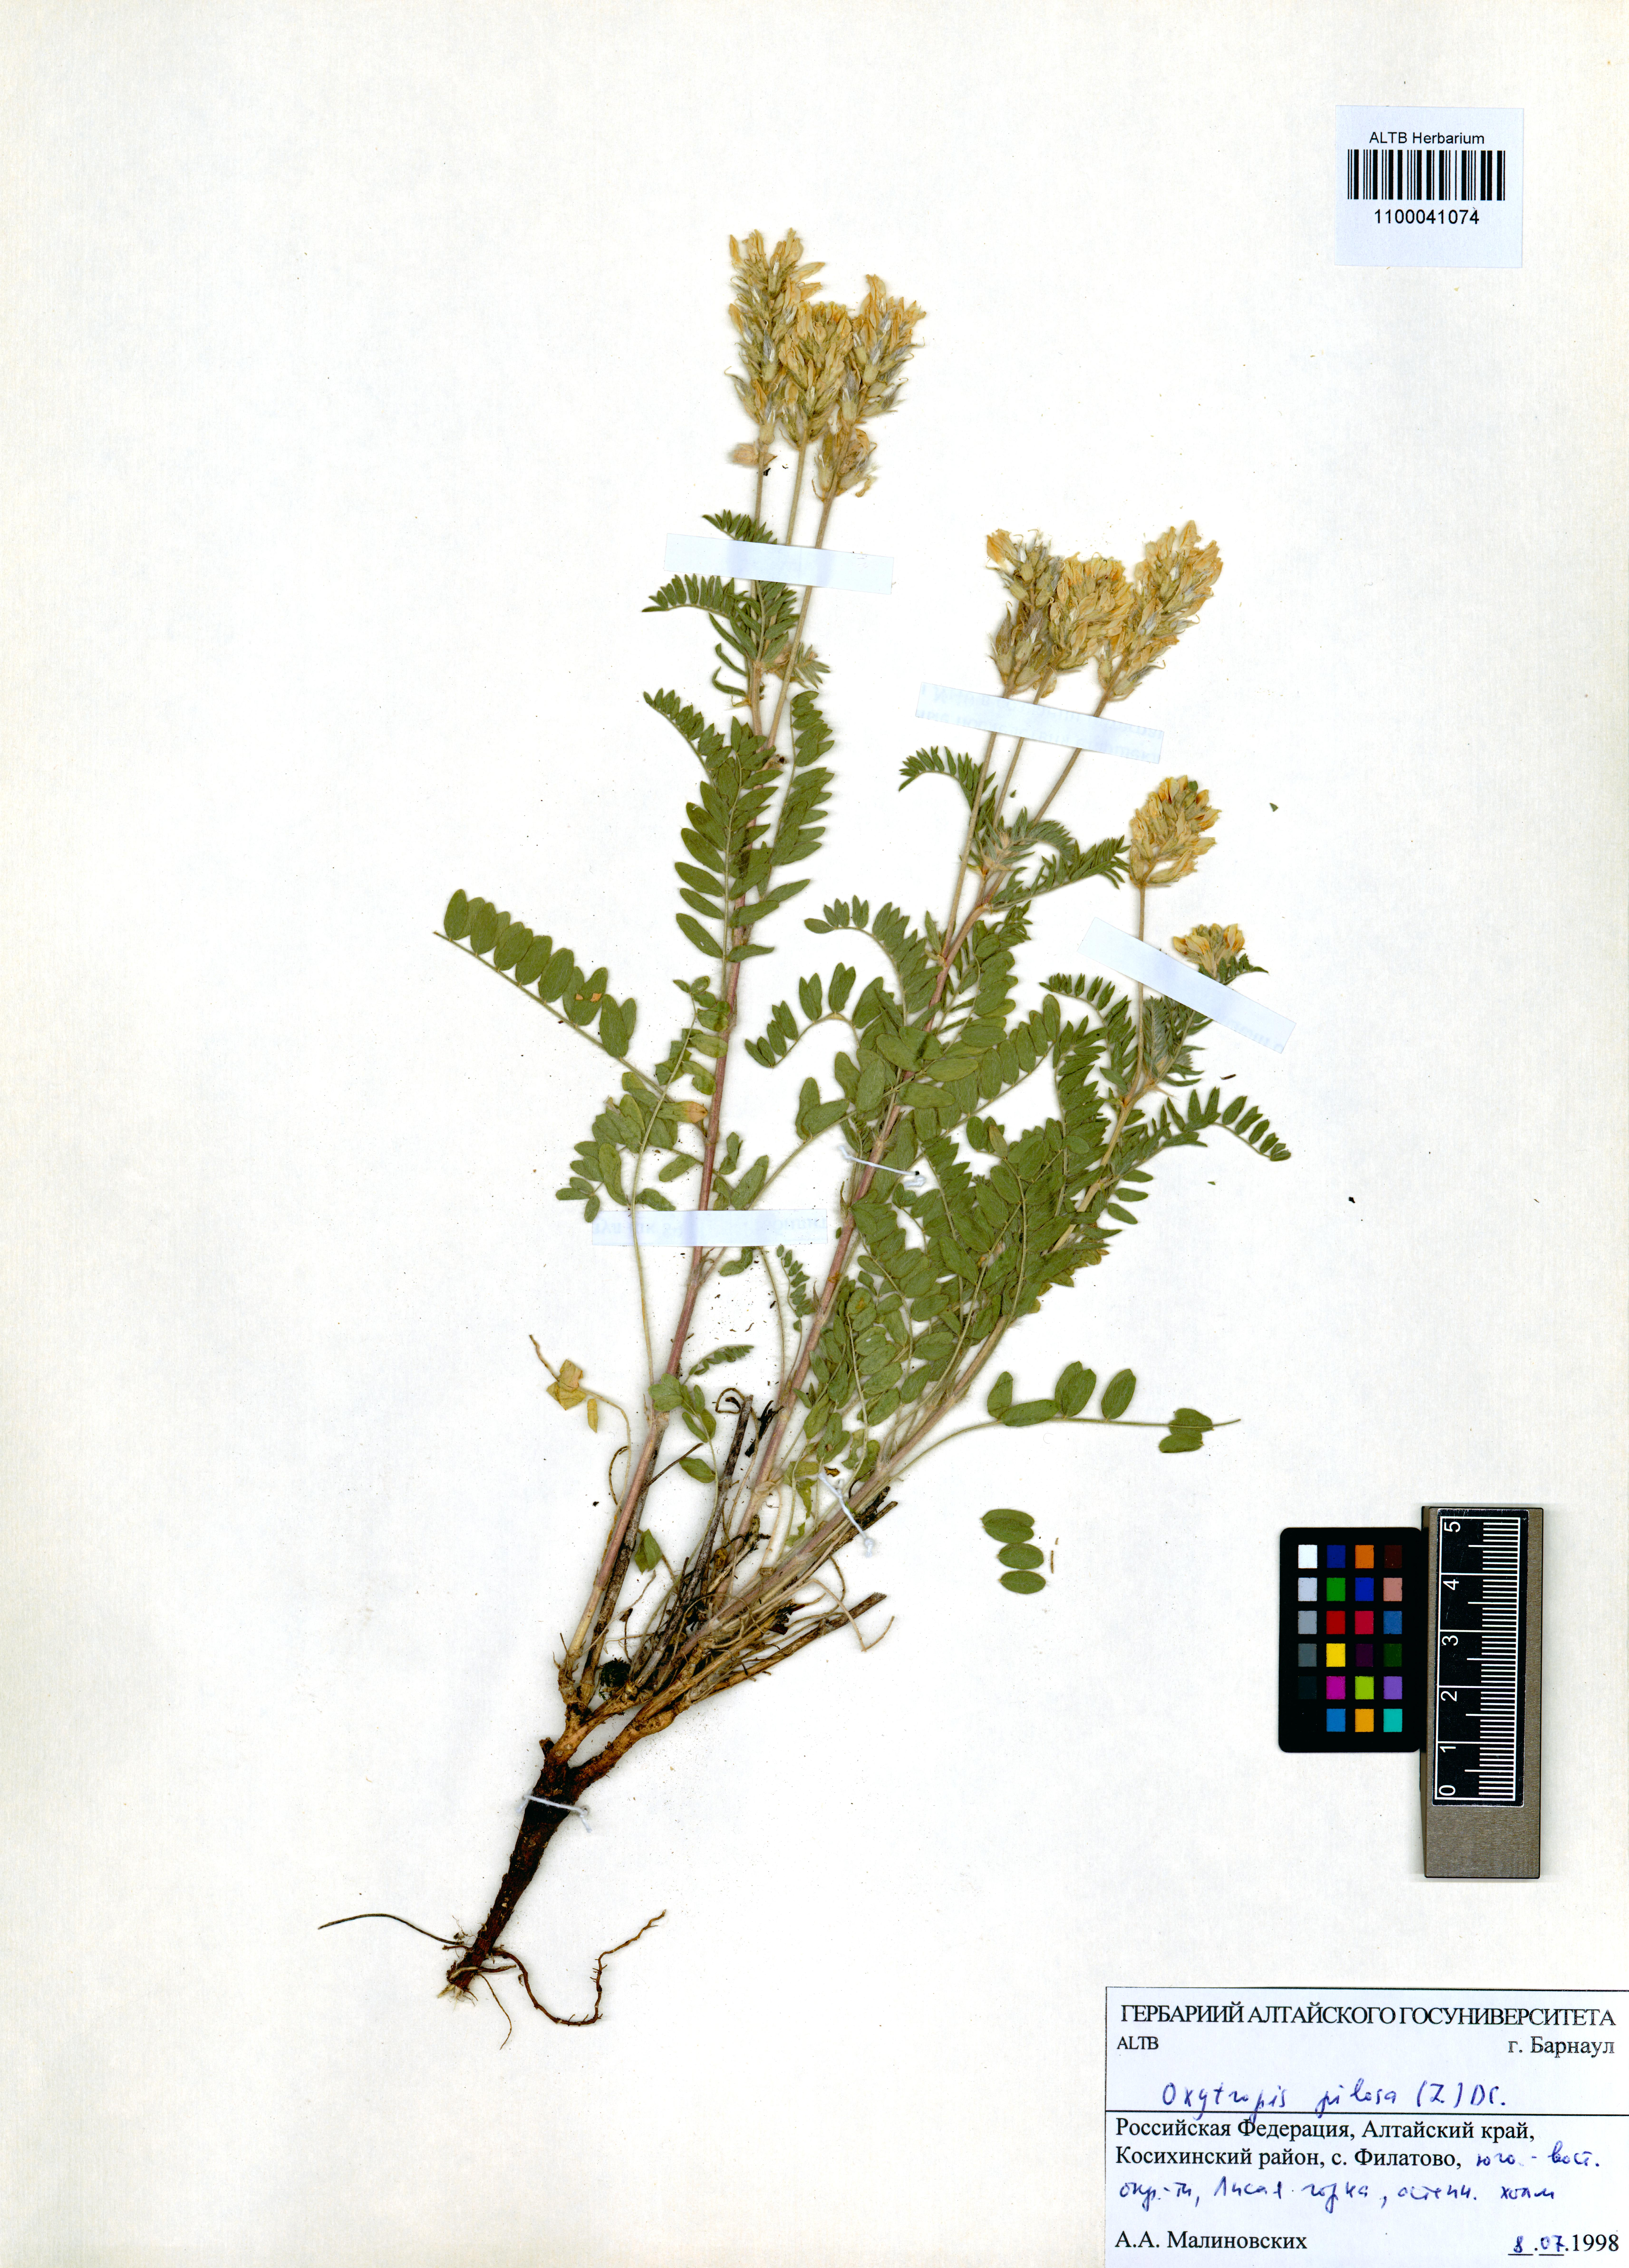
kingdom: Plantae
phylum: Tracheophyta
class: Magnoliopsida
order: Fabales
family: Fabaceae
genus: Oxytropis
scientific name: Oxytropis pilosa
